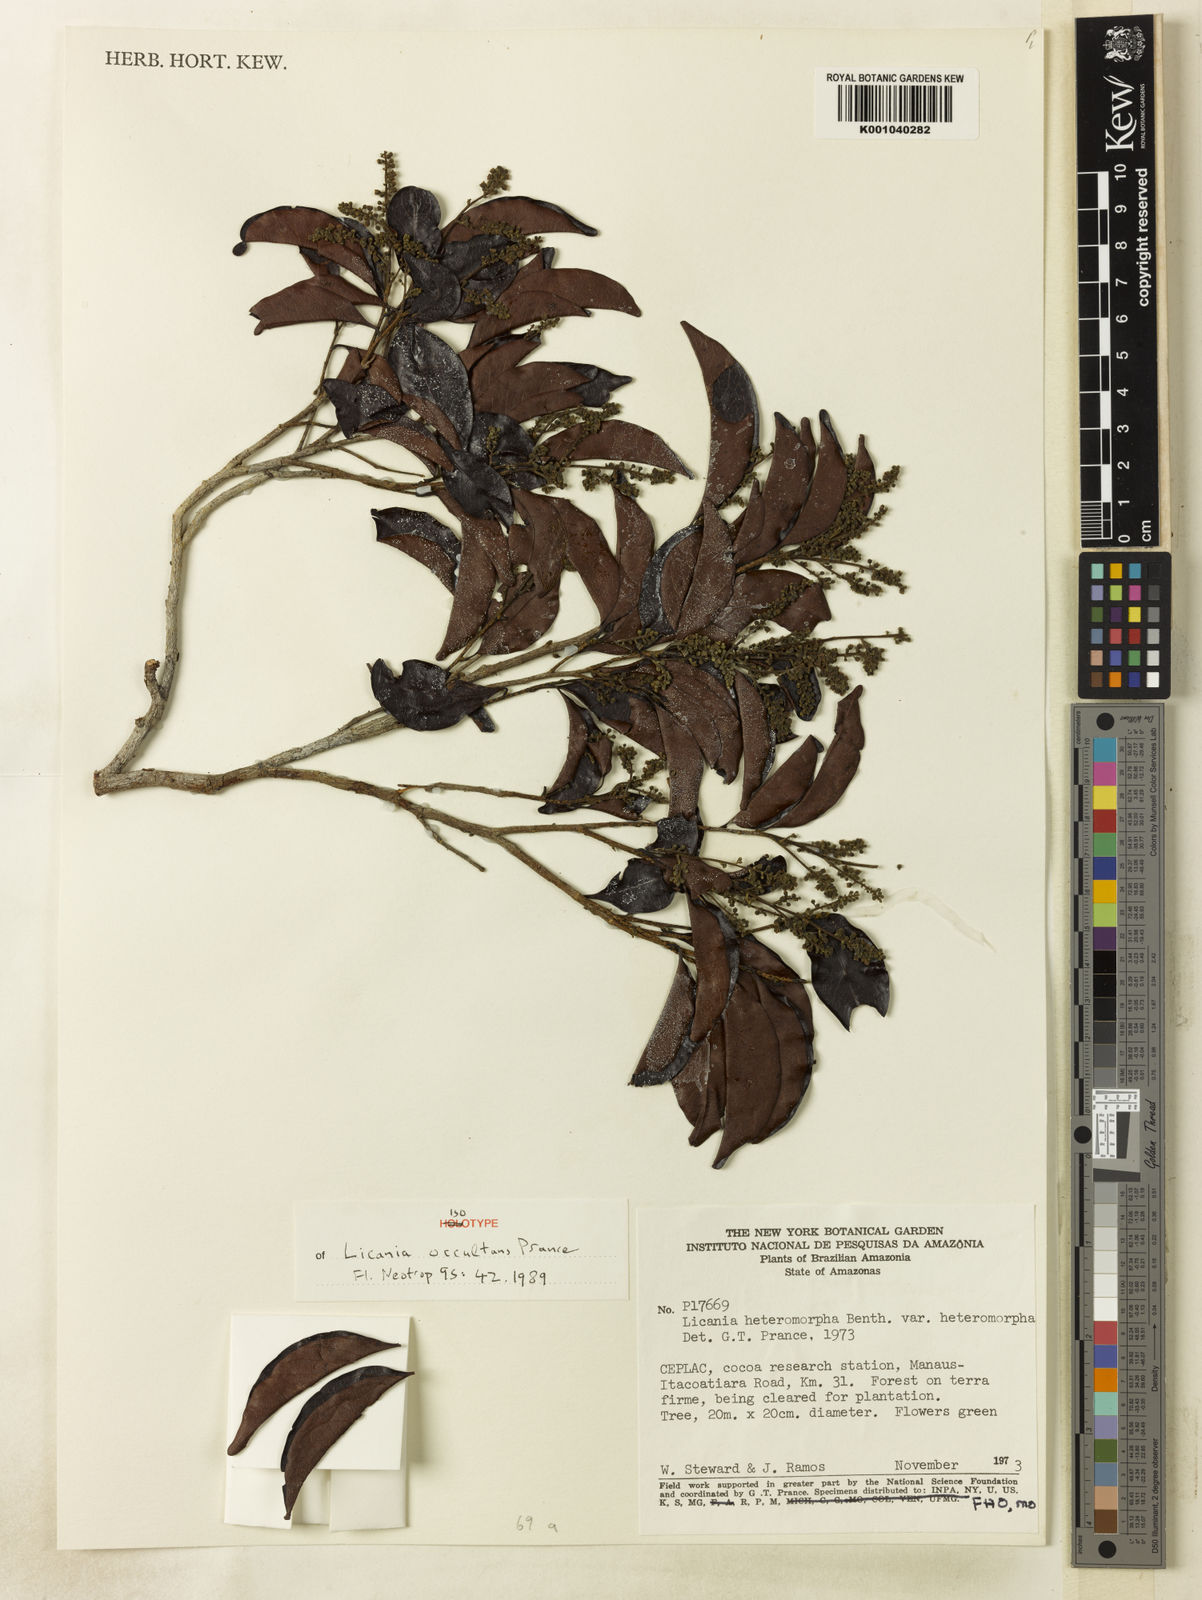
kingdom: Plantae
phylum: Tracheophyta
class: Magnoliopsida
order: Malpighiales
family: Chrysobalanaceae
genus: Hymenopus
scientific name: Hymenopus occultans
